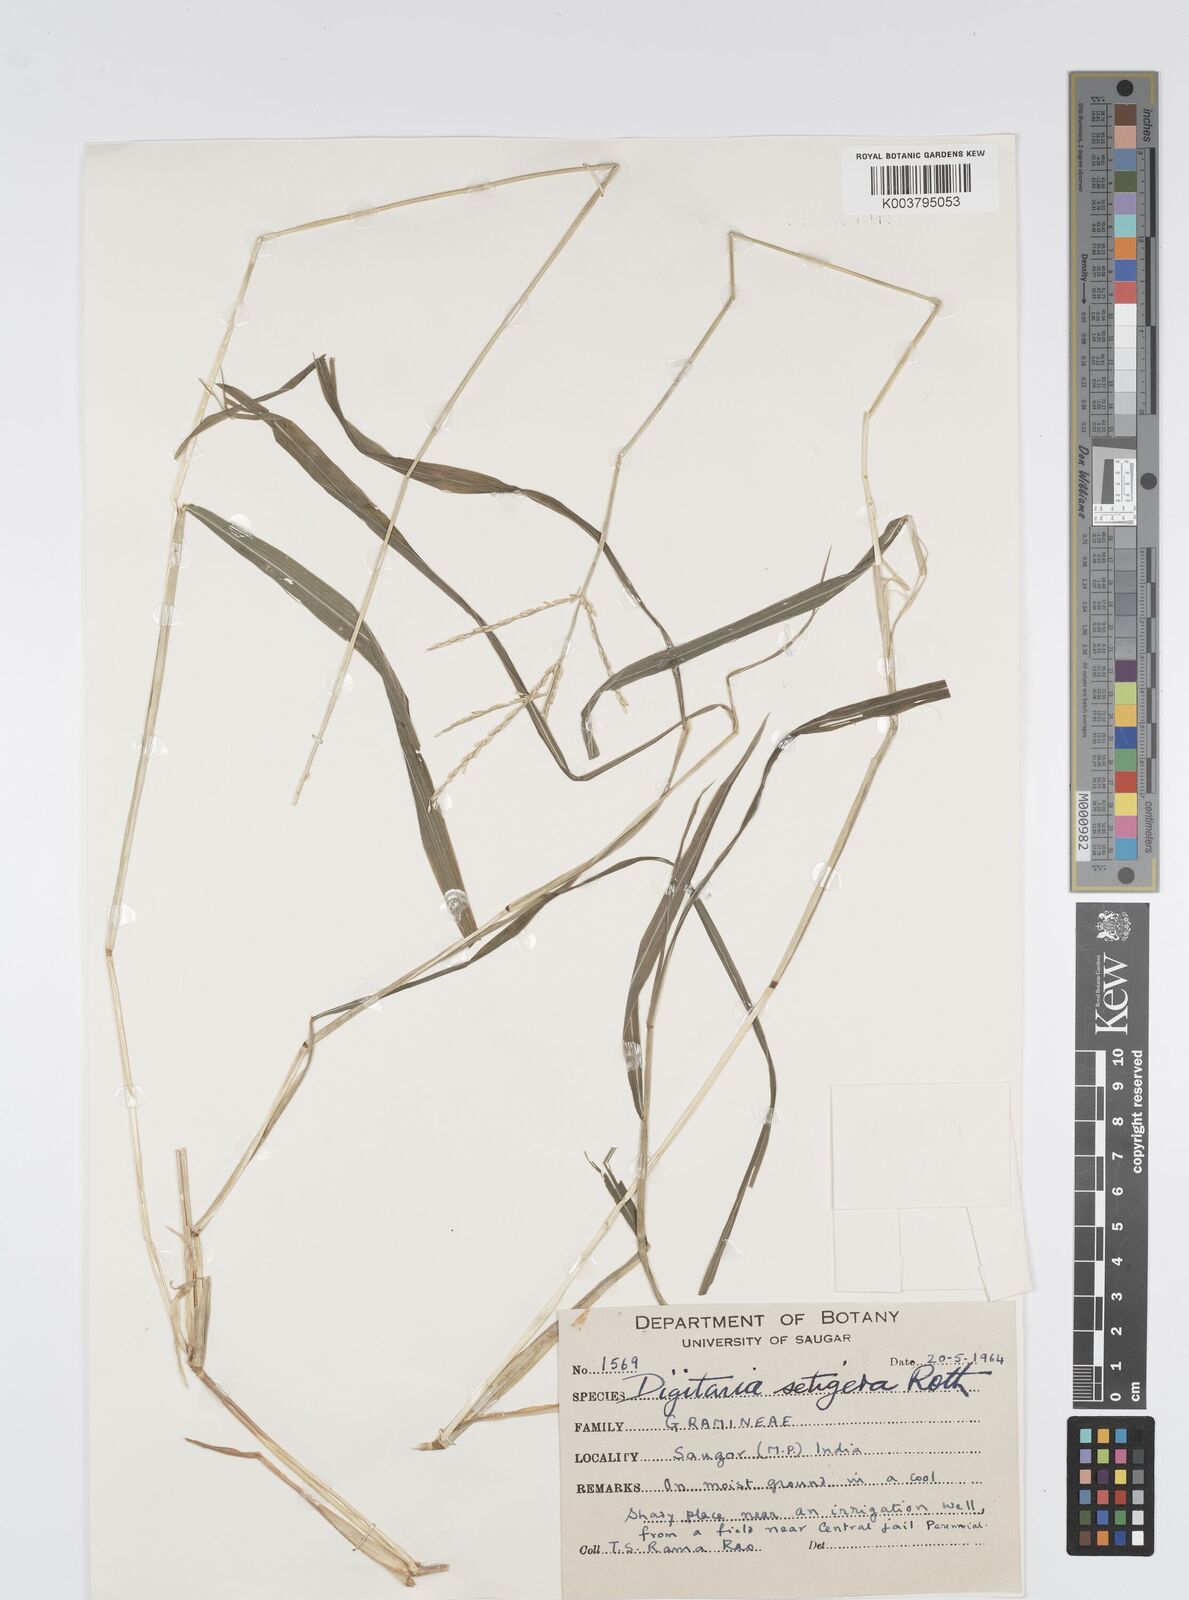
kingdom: Plantae
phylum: Tracheophyta
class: Liliopsida
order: Poales
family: Poaceae
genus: Digitaria
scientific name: Digitaria setigera
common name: East indian crabgrass
